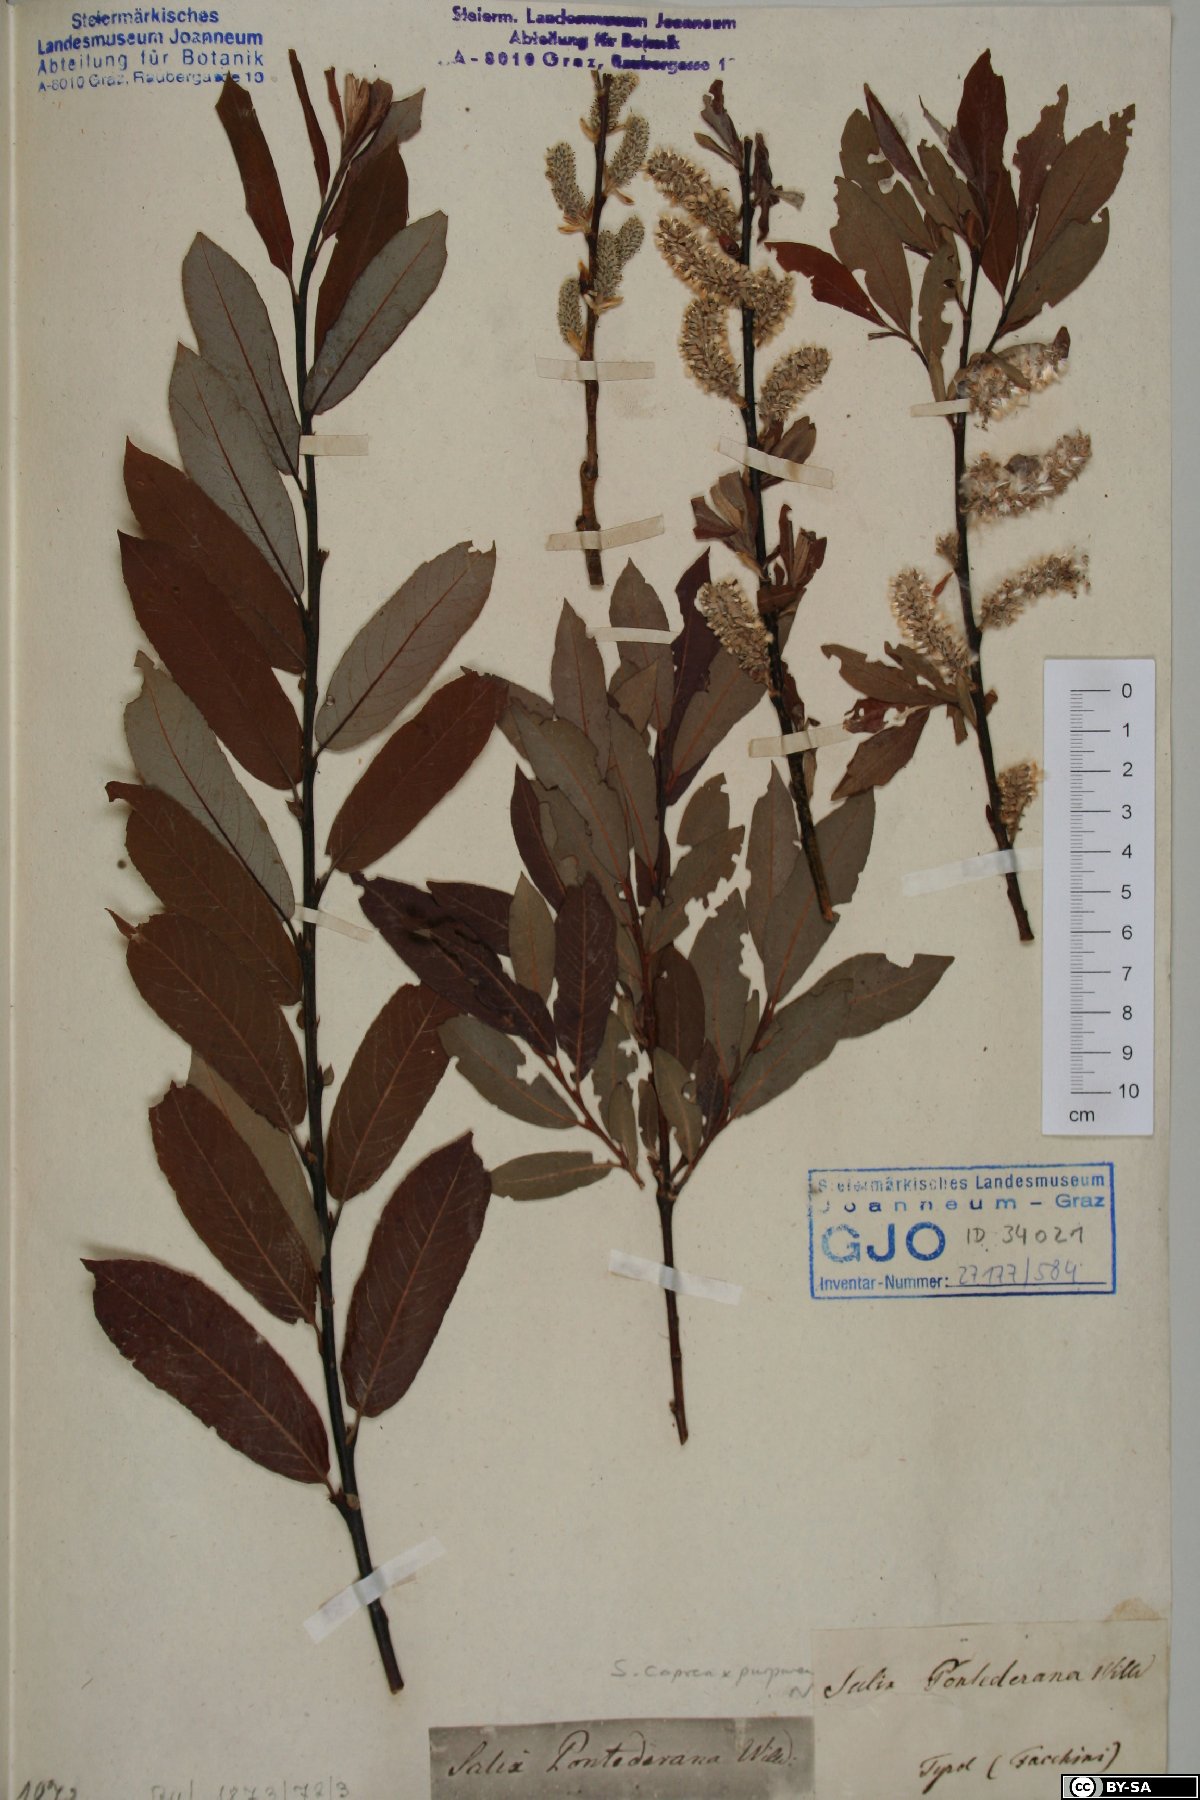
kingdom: Plantae
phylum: Tracheophyta
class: Magnoliopsida
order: Malpighiales
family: Salicaceae
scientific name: Salicaceae
